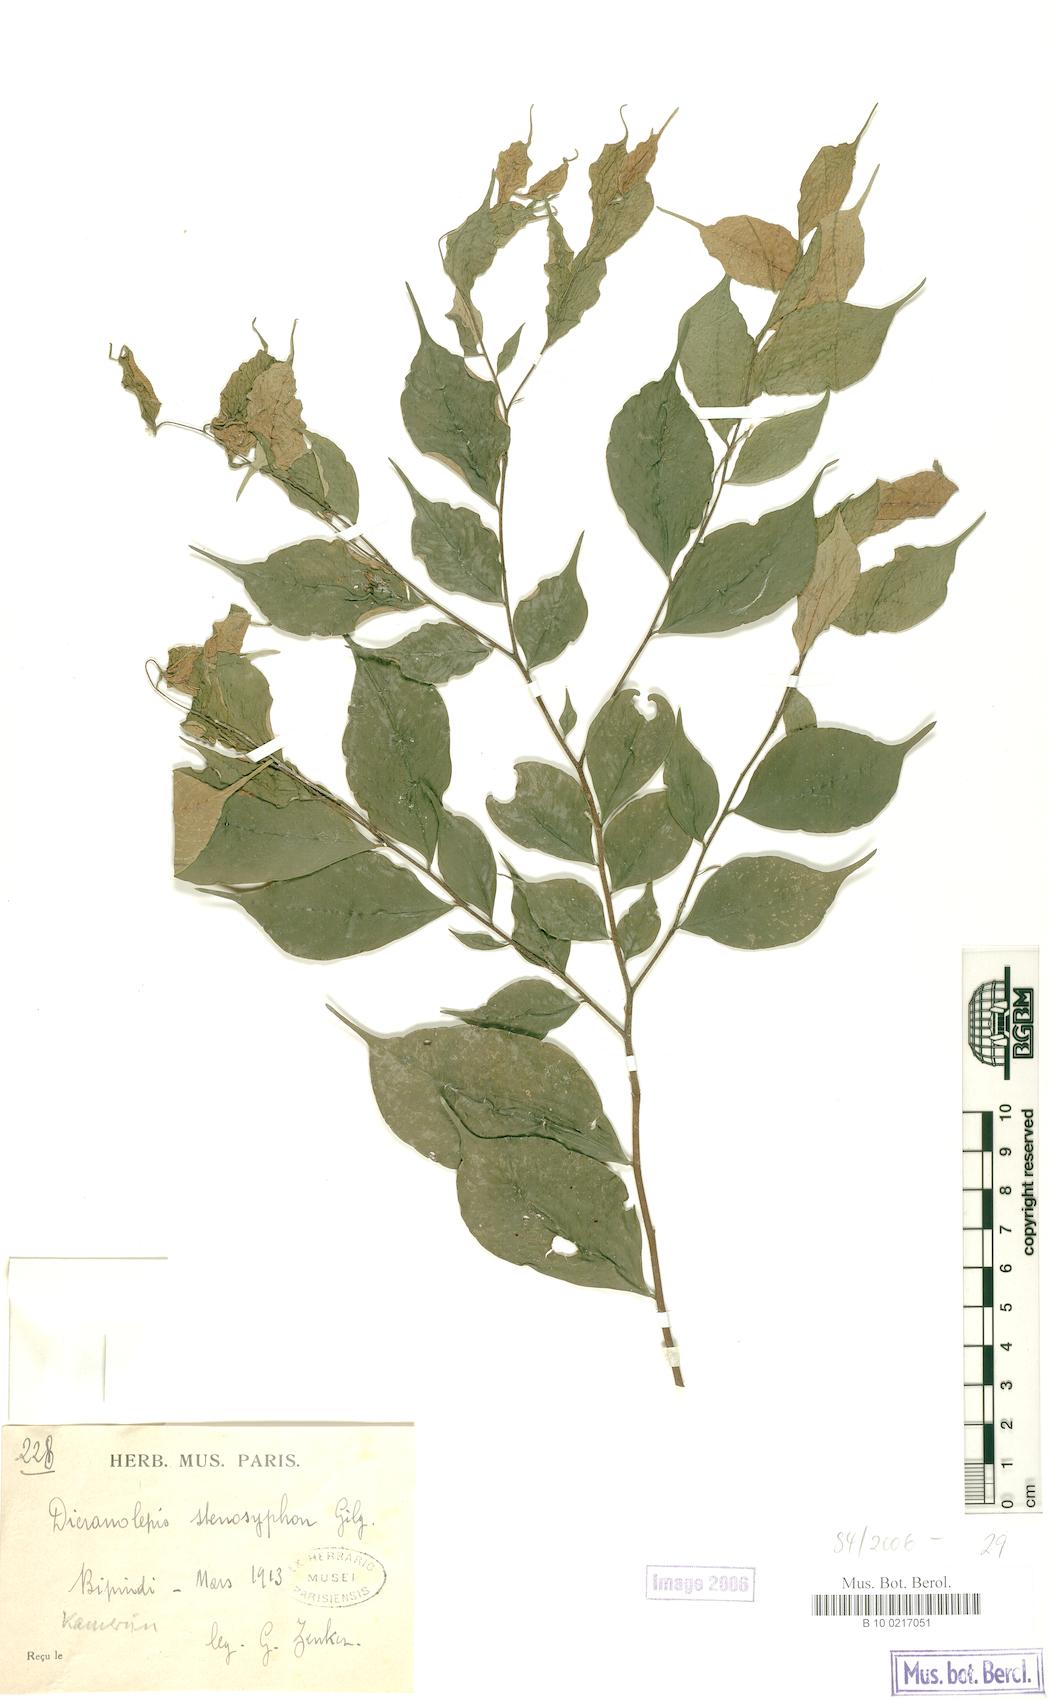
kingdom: Plantae
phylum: Tracheophyta
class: Magnoliopsida
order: Malvales
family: Thymelaeaceae
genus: Dicranolepis
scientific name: Dicranolepis disticha
